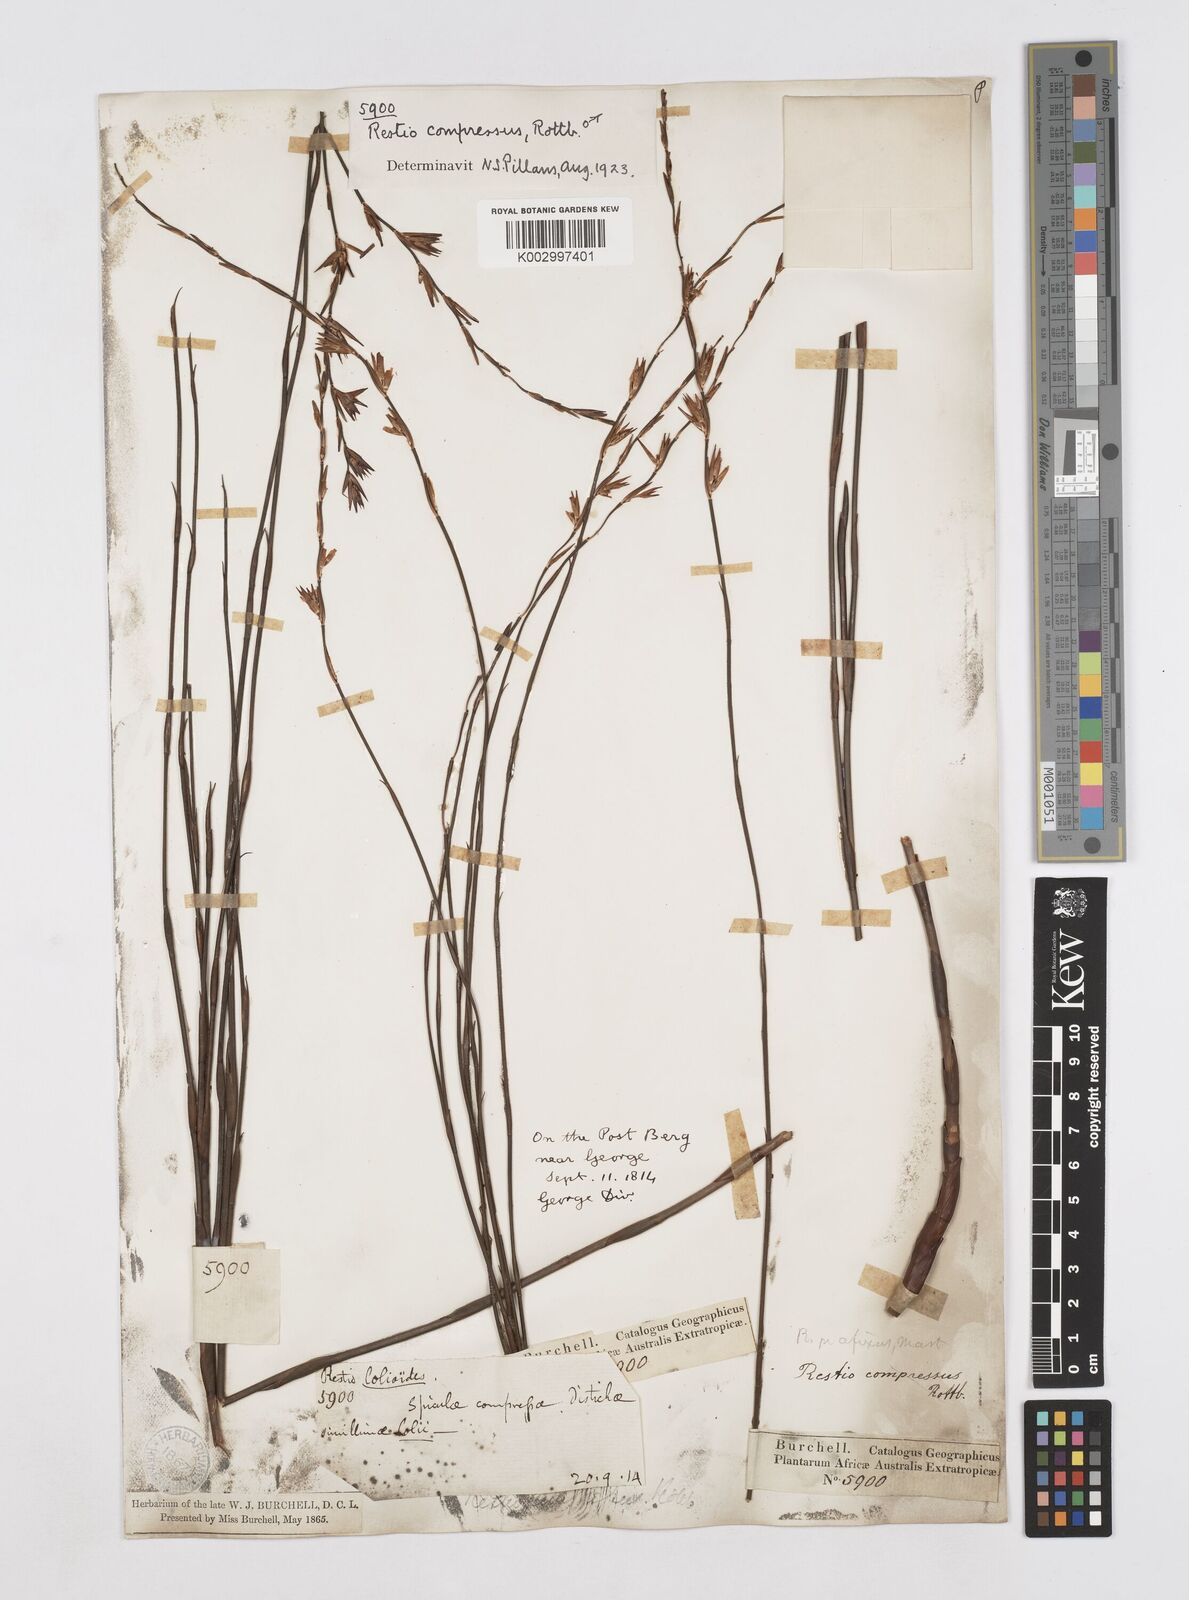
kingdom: Plantae
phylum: Tracheophyta
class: Liliopsida
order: Poales
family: Restionaceae
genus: Platycaulos
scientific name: Platycaulos compressus
